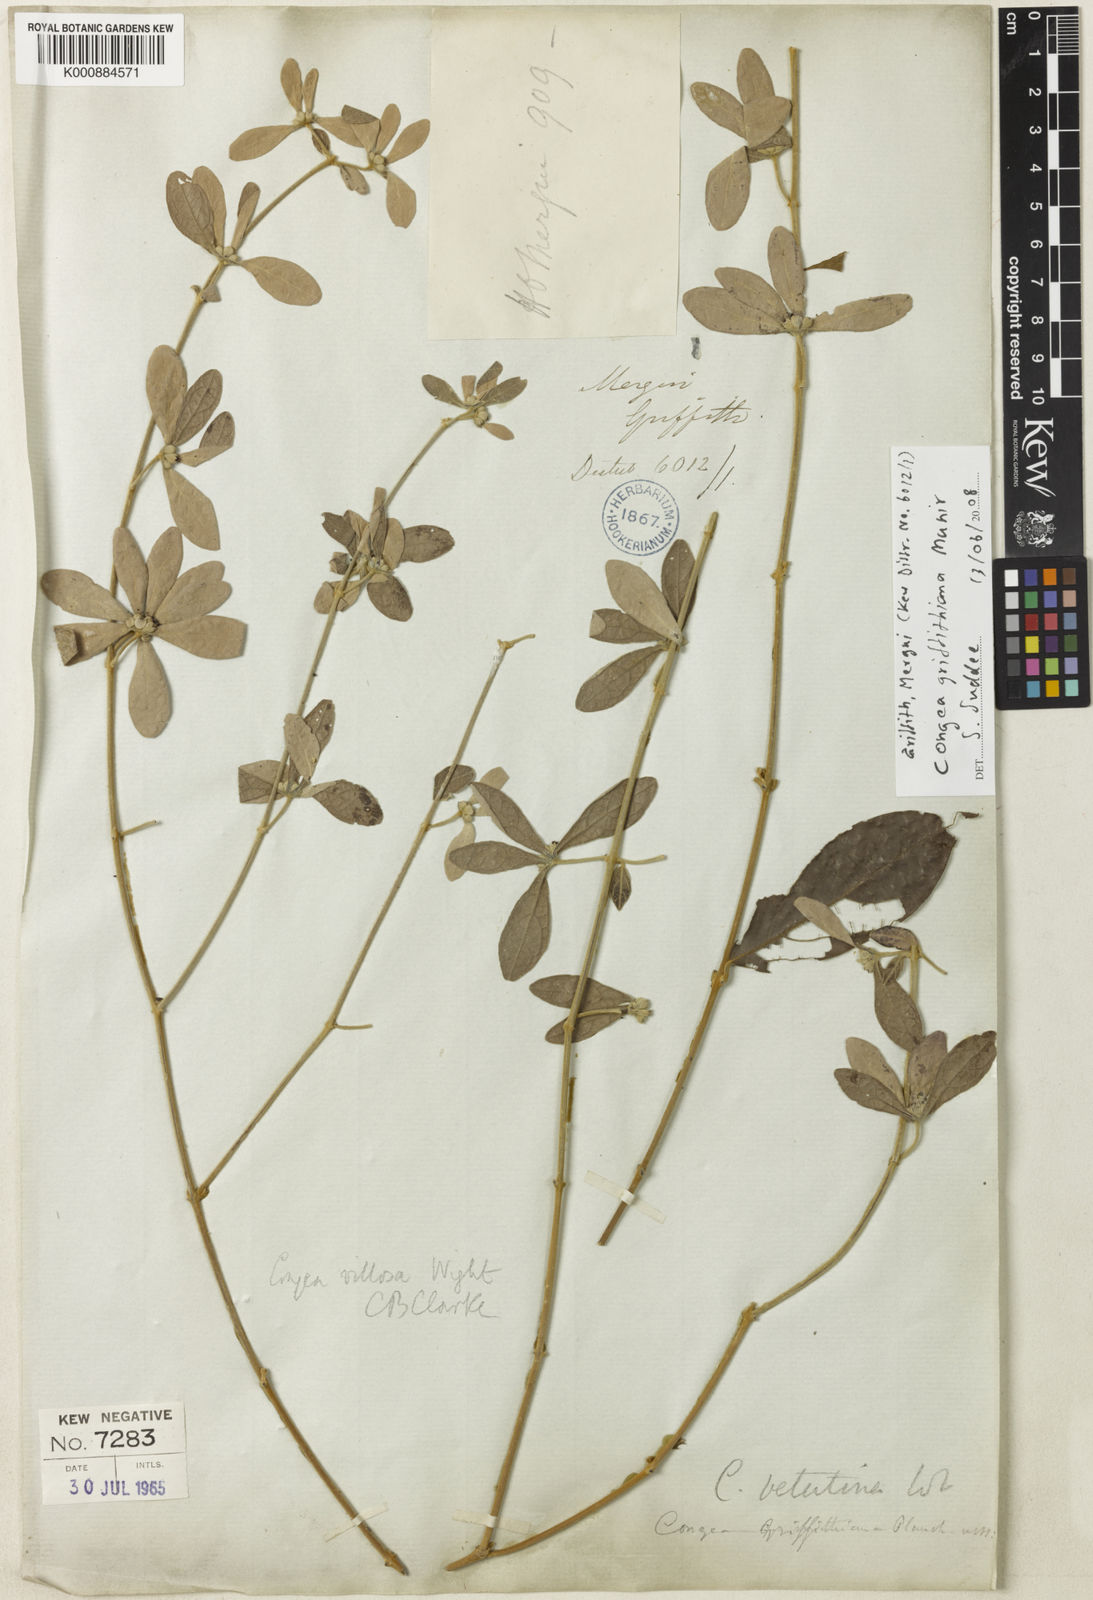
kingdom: Plantae
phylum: Tracheophyta
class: Magnoliopsida
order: Lamiales
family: Lamiaceae
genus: Congea
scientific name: Congea griffithiana
